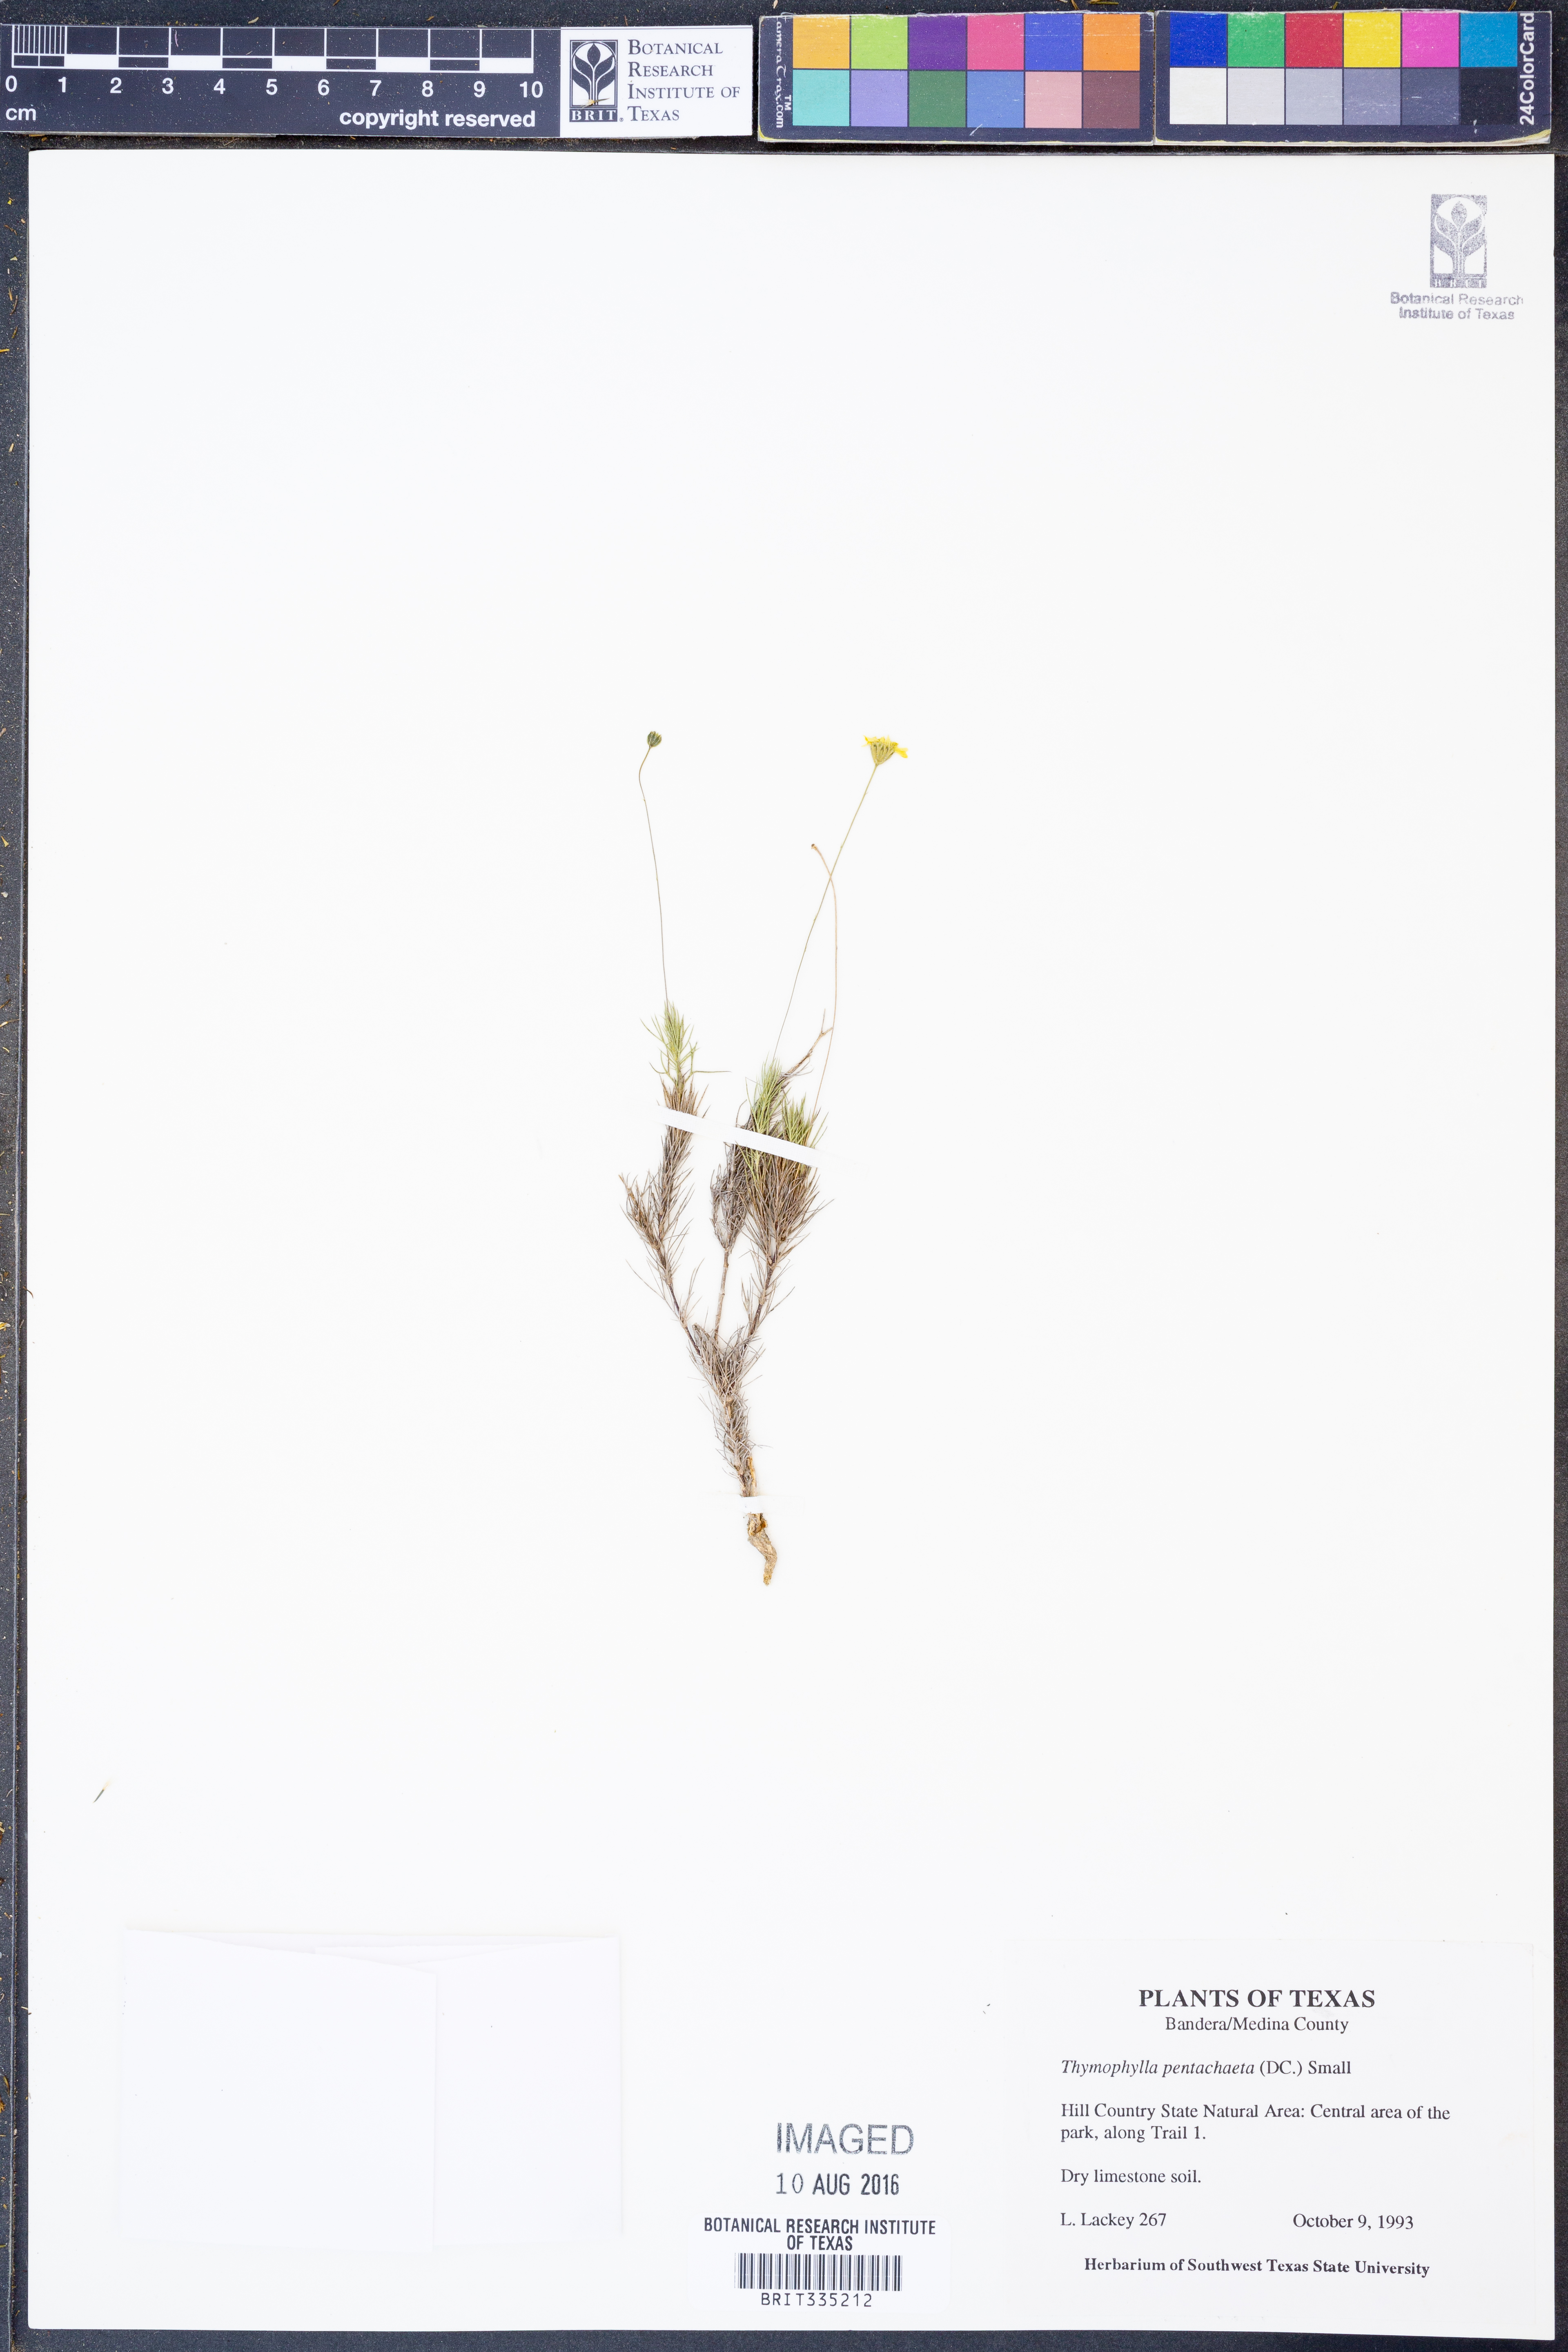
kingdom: Plantae
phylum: Tracheophyta
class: Magnoliopsida
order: Asterales
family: Asteraceae
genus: Thymophylla
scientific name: Thymophylla pentachaeta
